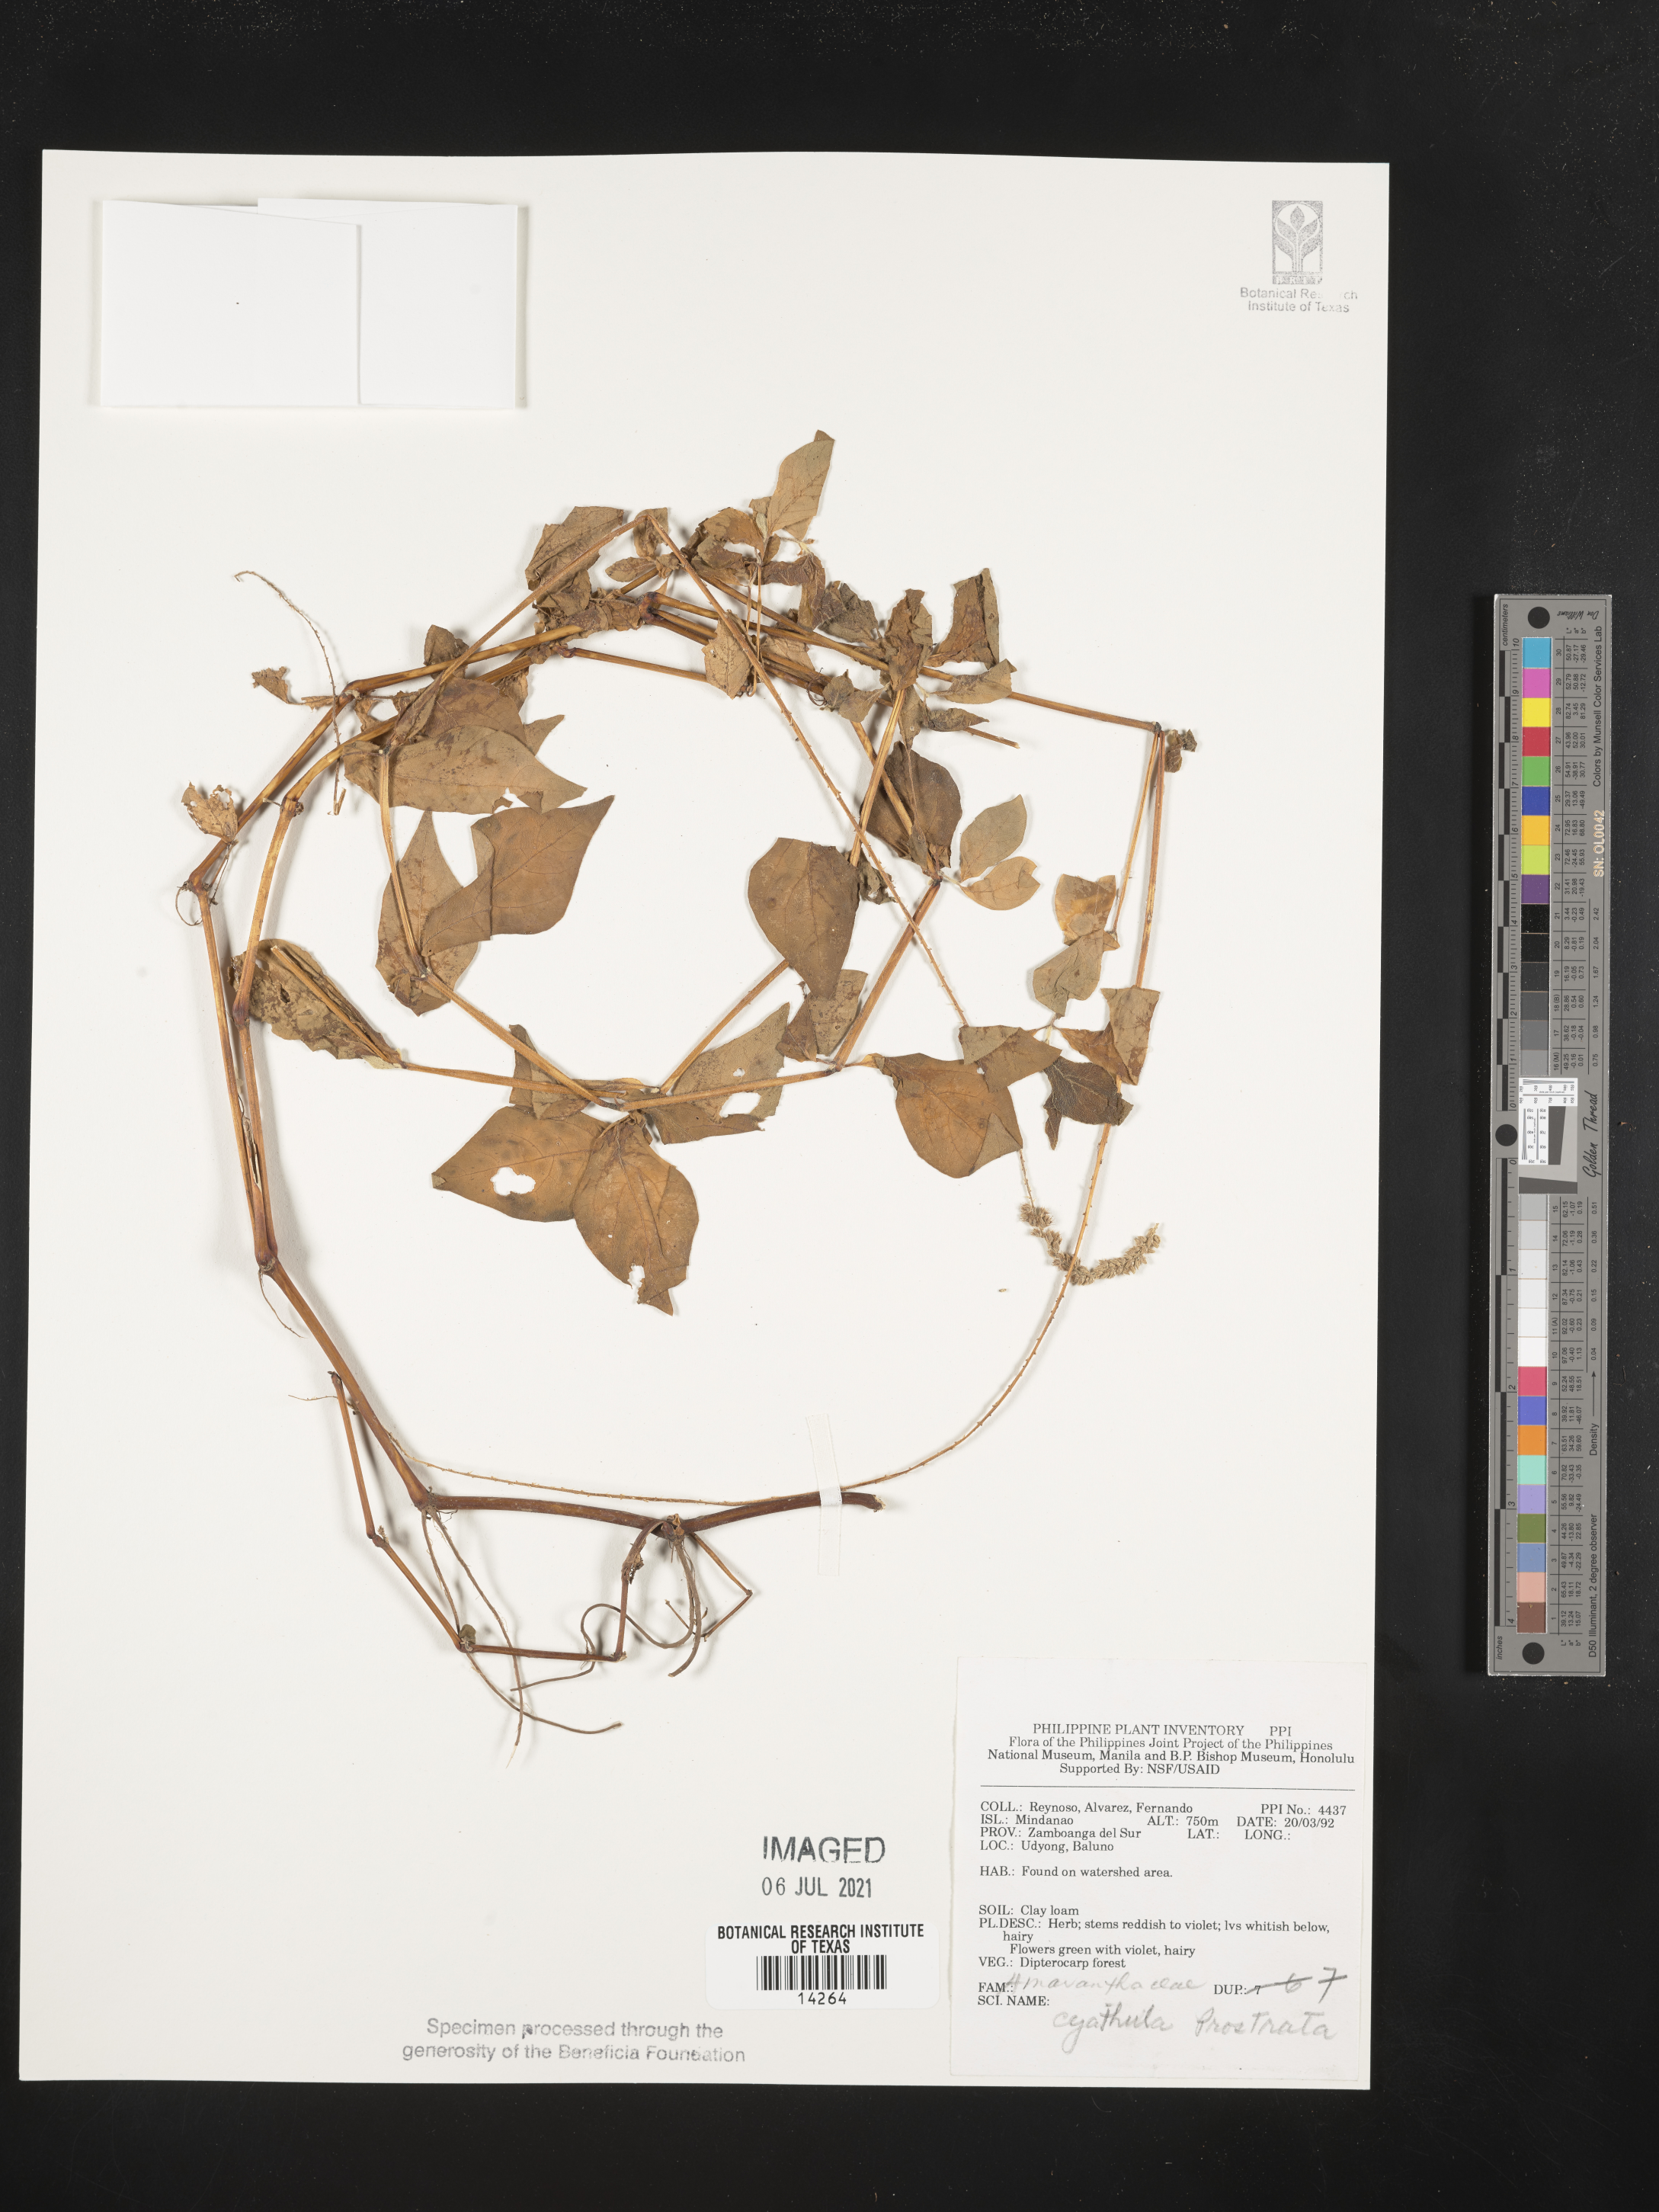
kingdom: Plantae
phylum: Tracheophyta
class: Magnoliopsida
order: Caryophyllales
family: Amaranthaceae
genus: Cyathula
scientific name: Cyathula prostrata
